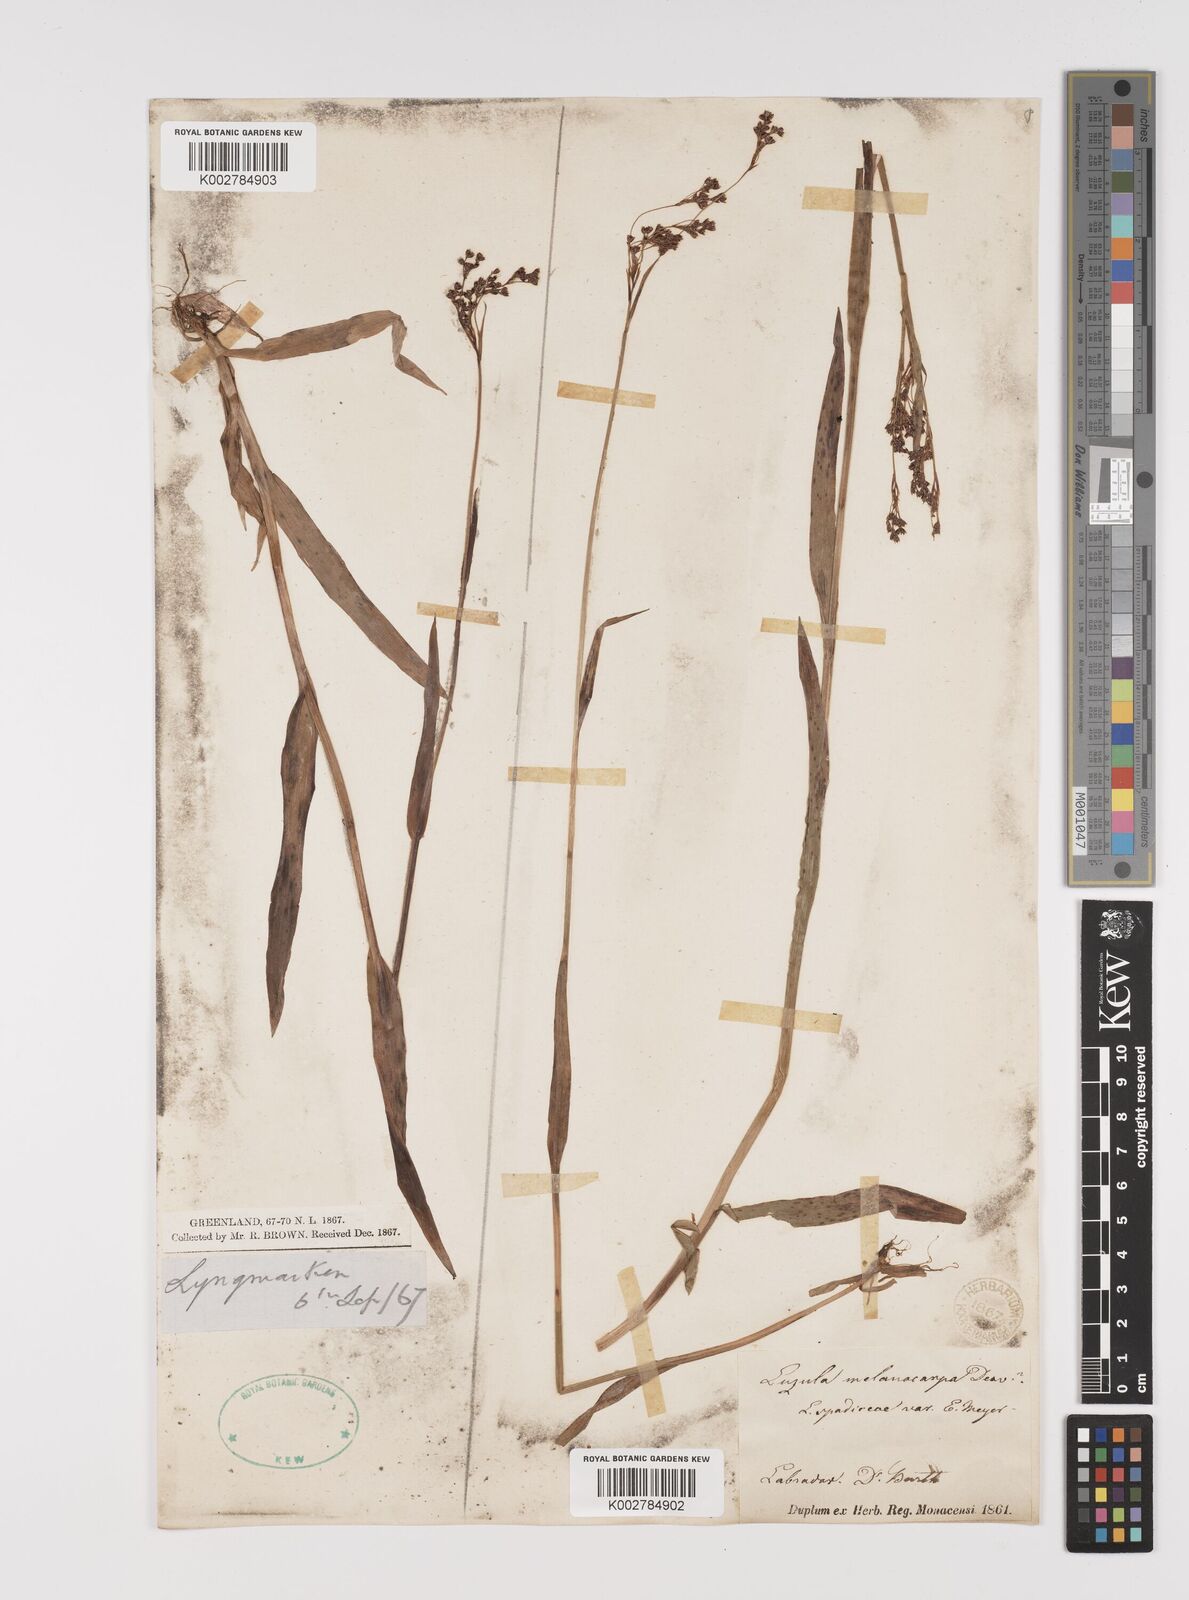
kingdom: Plantae
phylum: Tracheophyta
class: Liliopsida
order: Poales
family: Juncaceae
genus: Luzula
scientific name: Luzula
